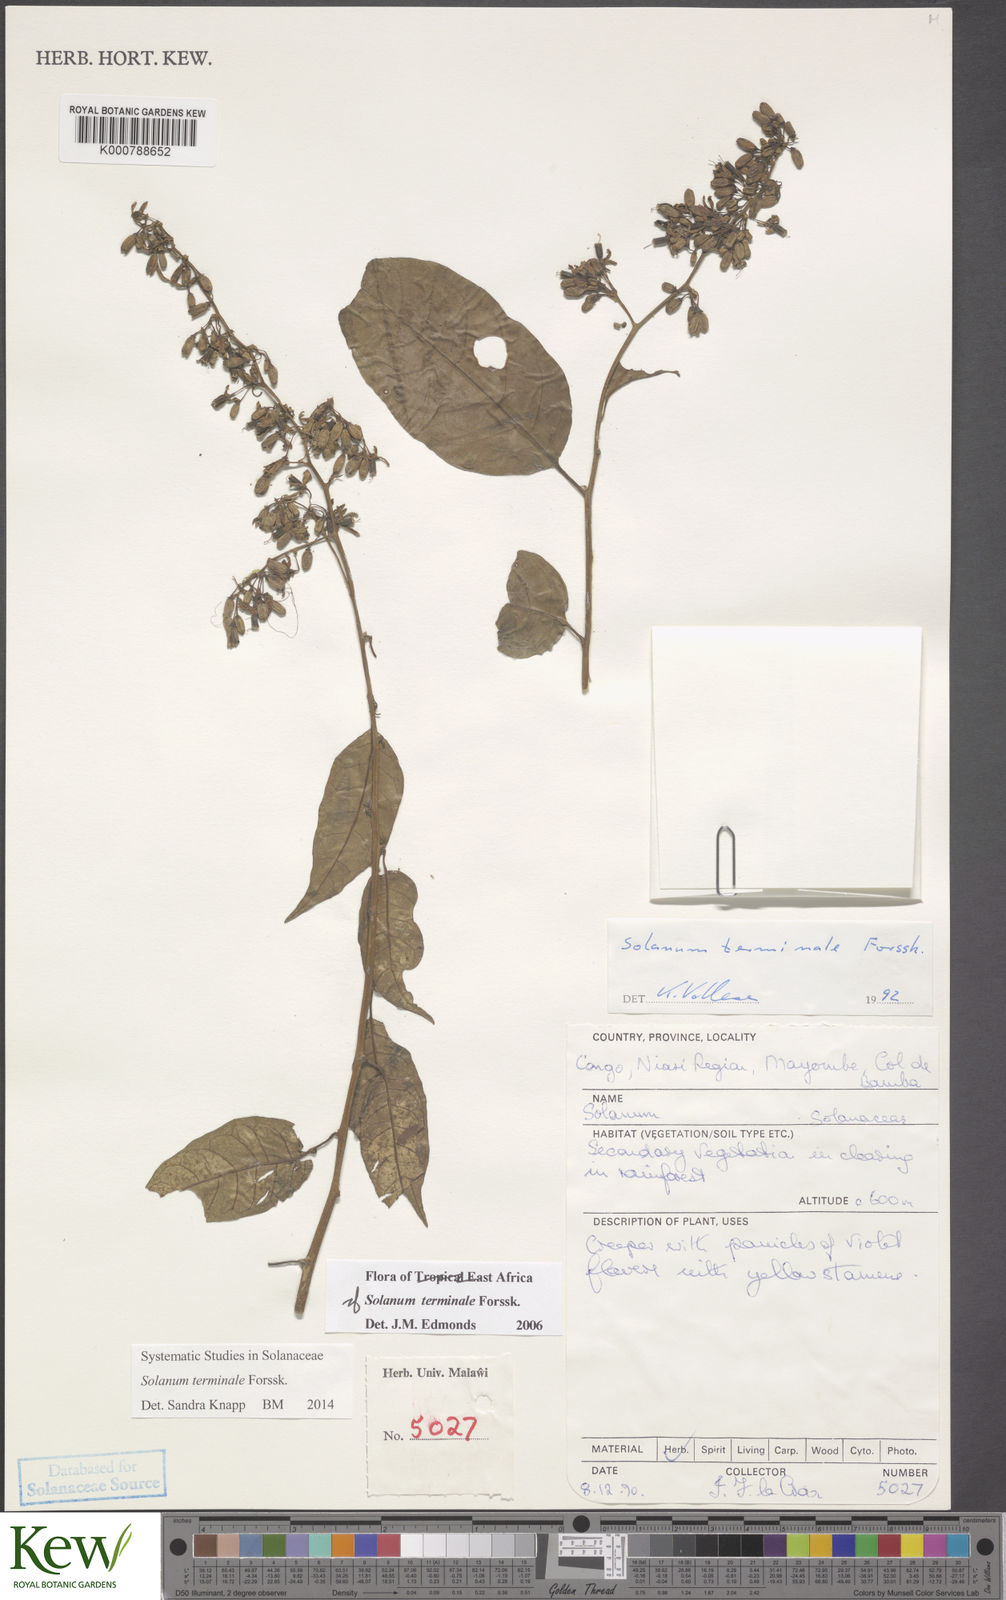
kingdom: Plantae
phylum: Tracheophyta
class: Magnoliopsida
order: Solanales
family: Solanaceae
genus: Solanum
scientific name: Solanum terminale
